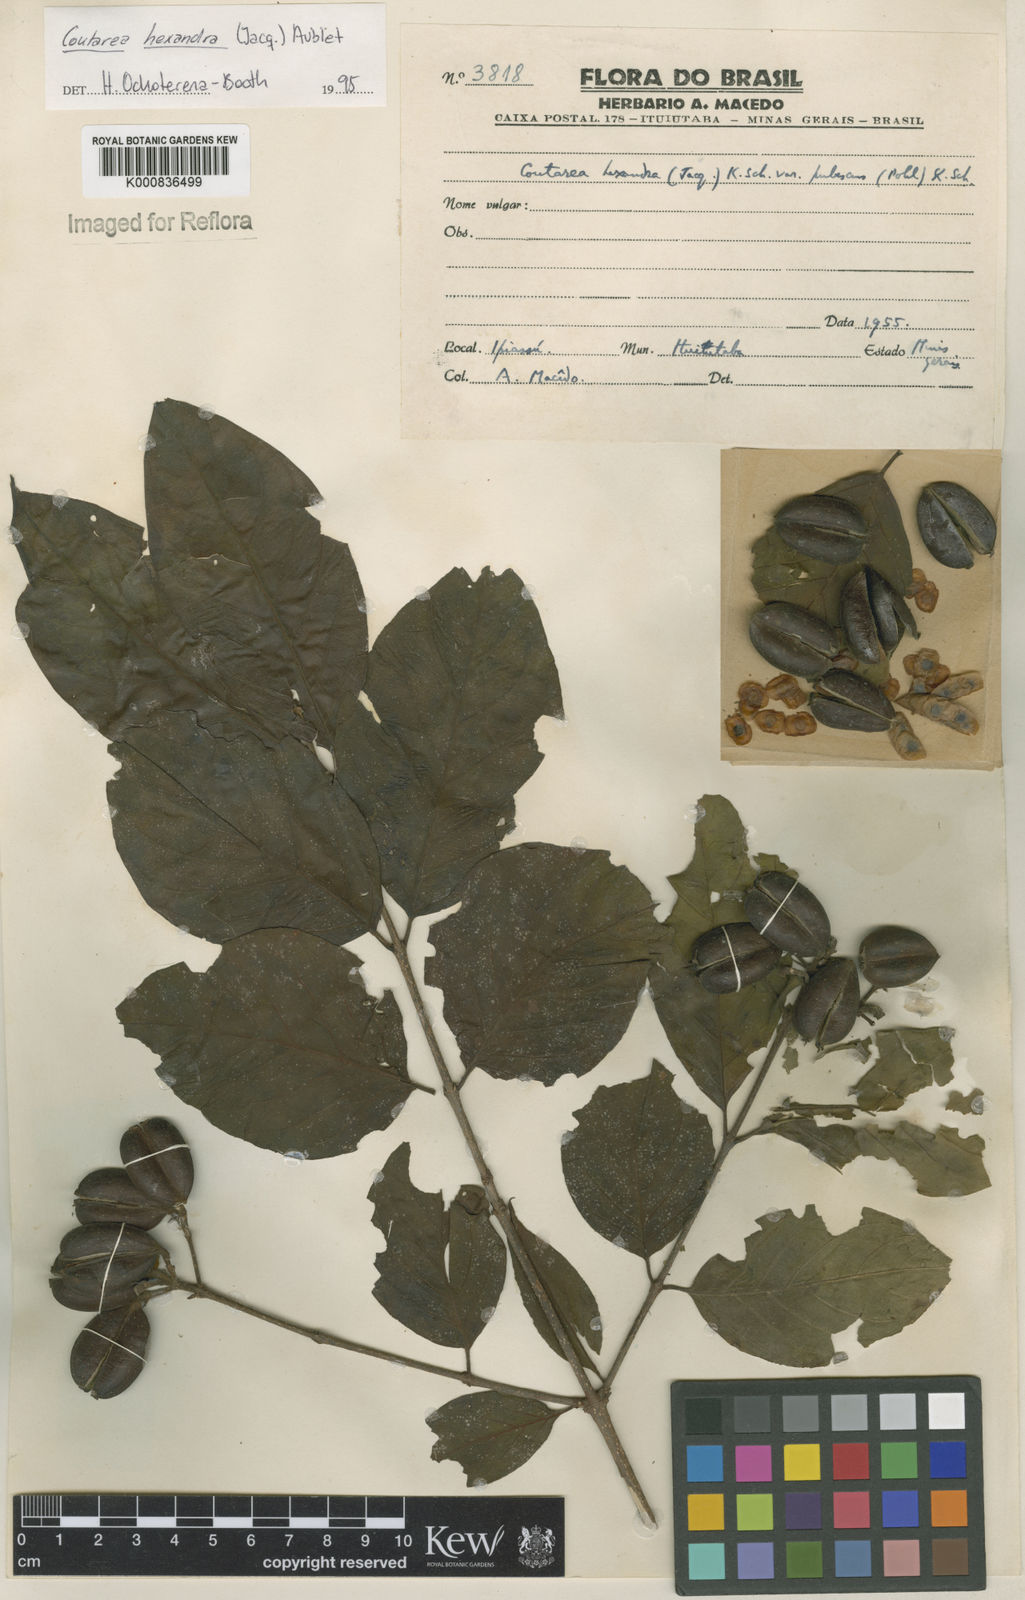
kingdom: Plantae
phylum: Tracheophyta
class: Magnoliopsida
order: Gentianales
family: Rubiaceae
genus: Coutarea
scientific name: Coutarea hexandra
